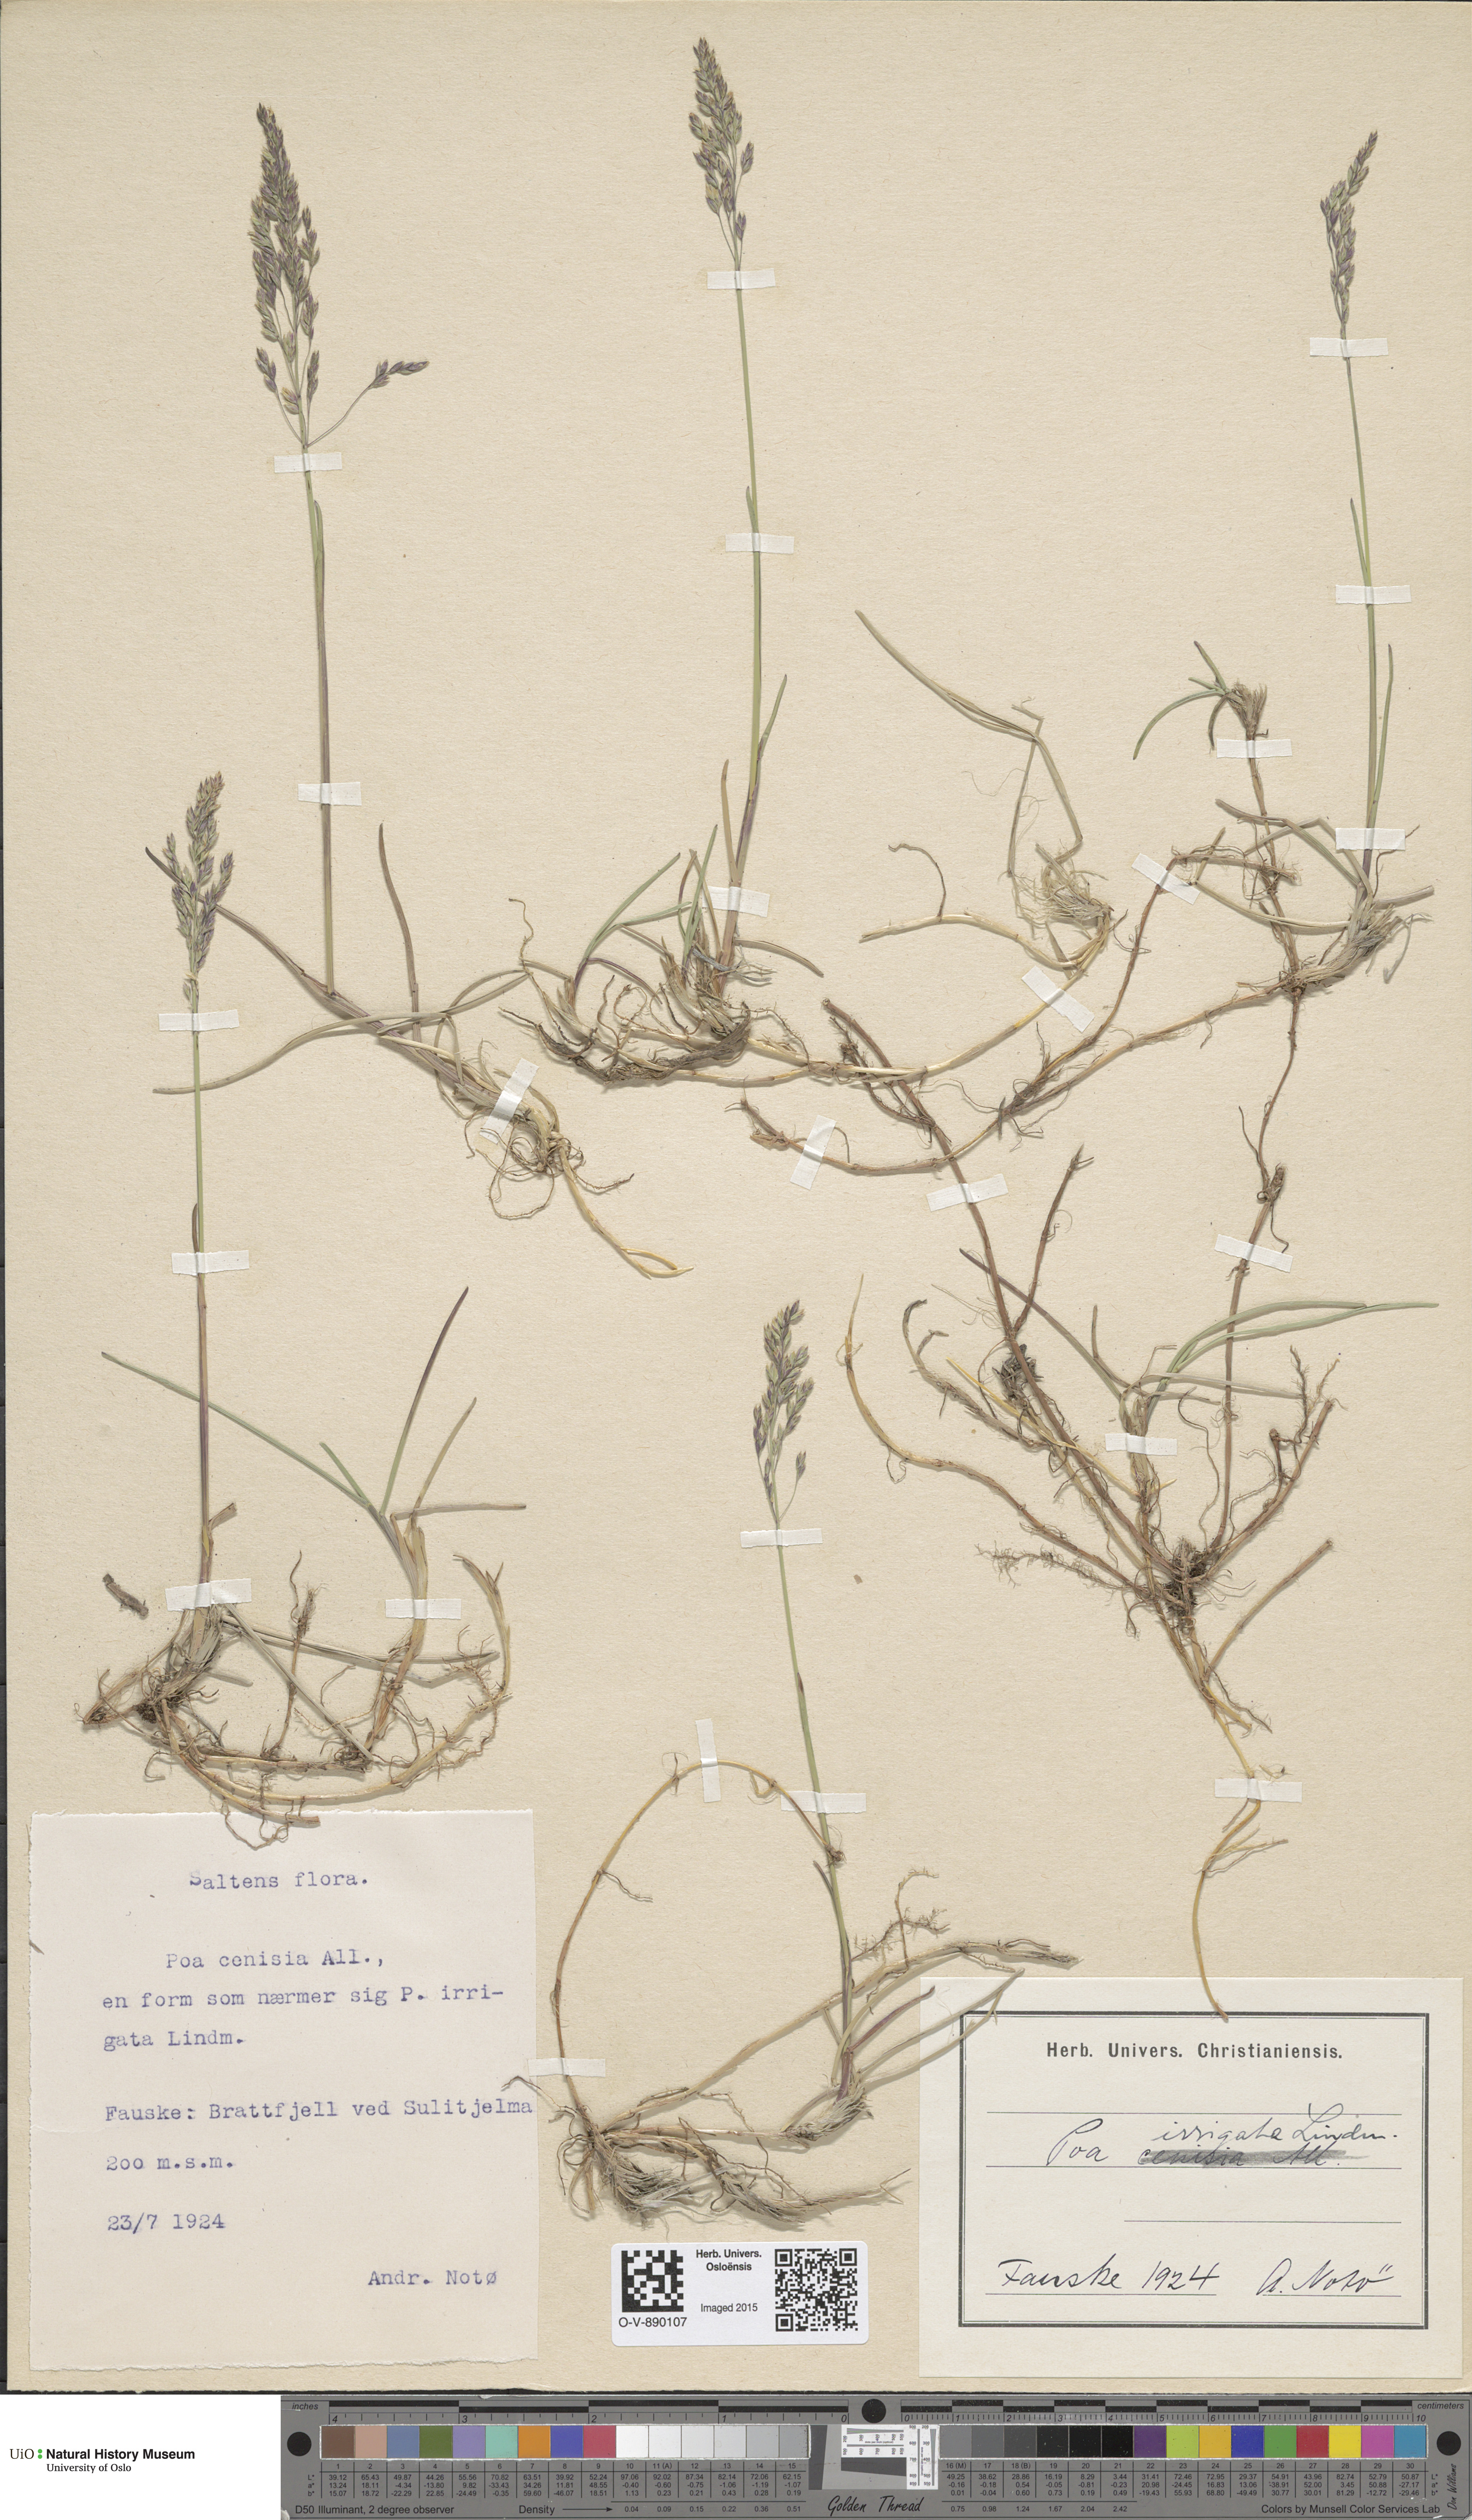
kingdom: Plantae
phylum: Tracheophyta
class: Liliopsida
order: Poales
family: Poaceae
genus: Poa
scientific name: Poa humilis
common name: Spreading meadow-grass
